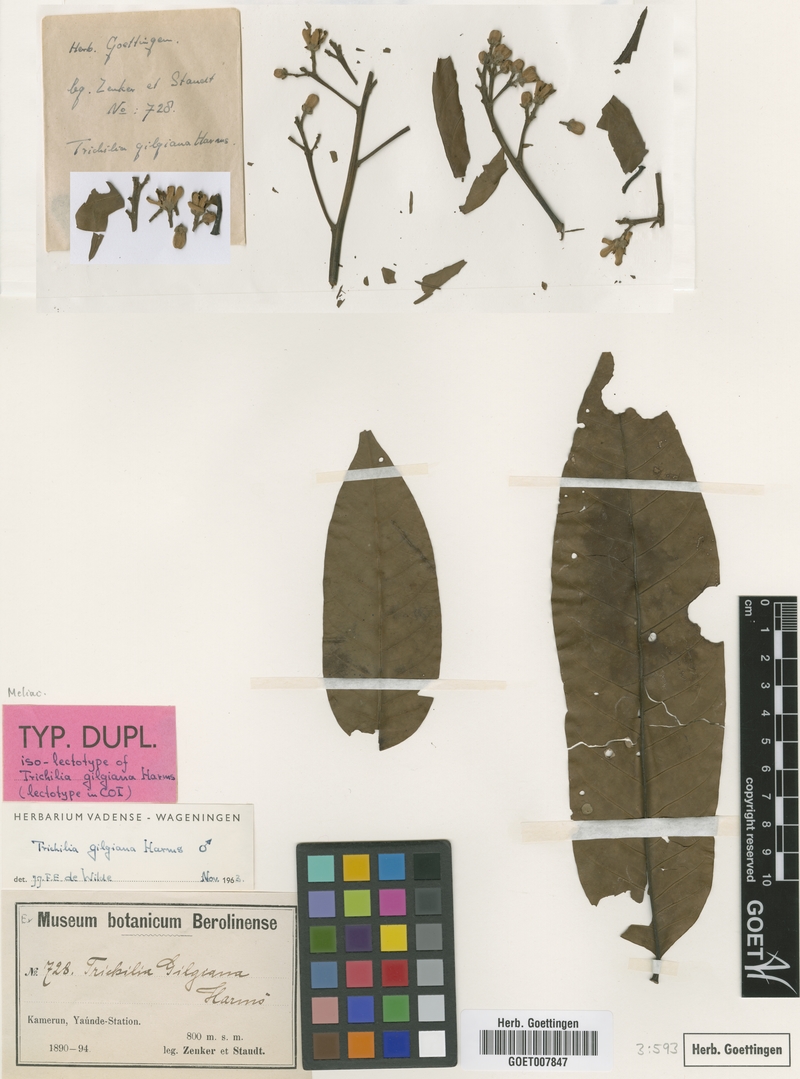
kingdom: Plantae
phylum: Tracheophyta
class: Magnoliopsida
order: Sapindales
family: Meliaceae
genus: Trichilia
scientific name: Trichilia gilgiana
